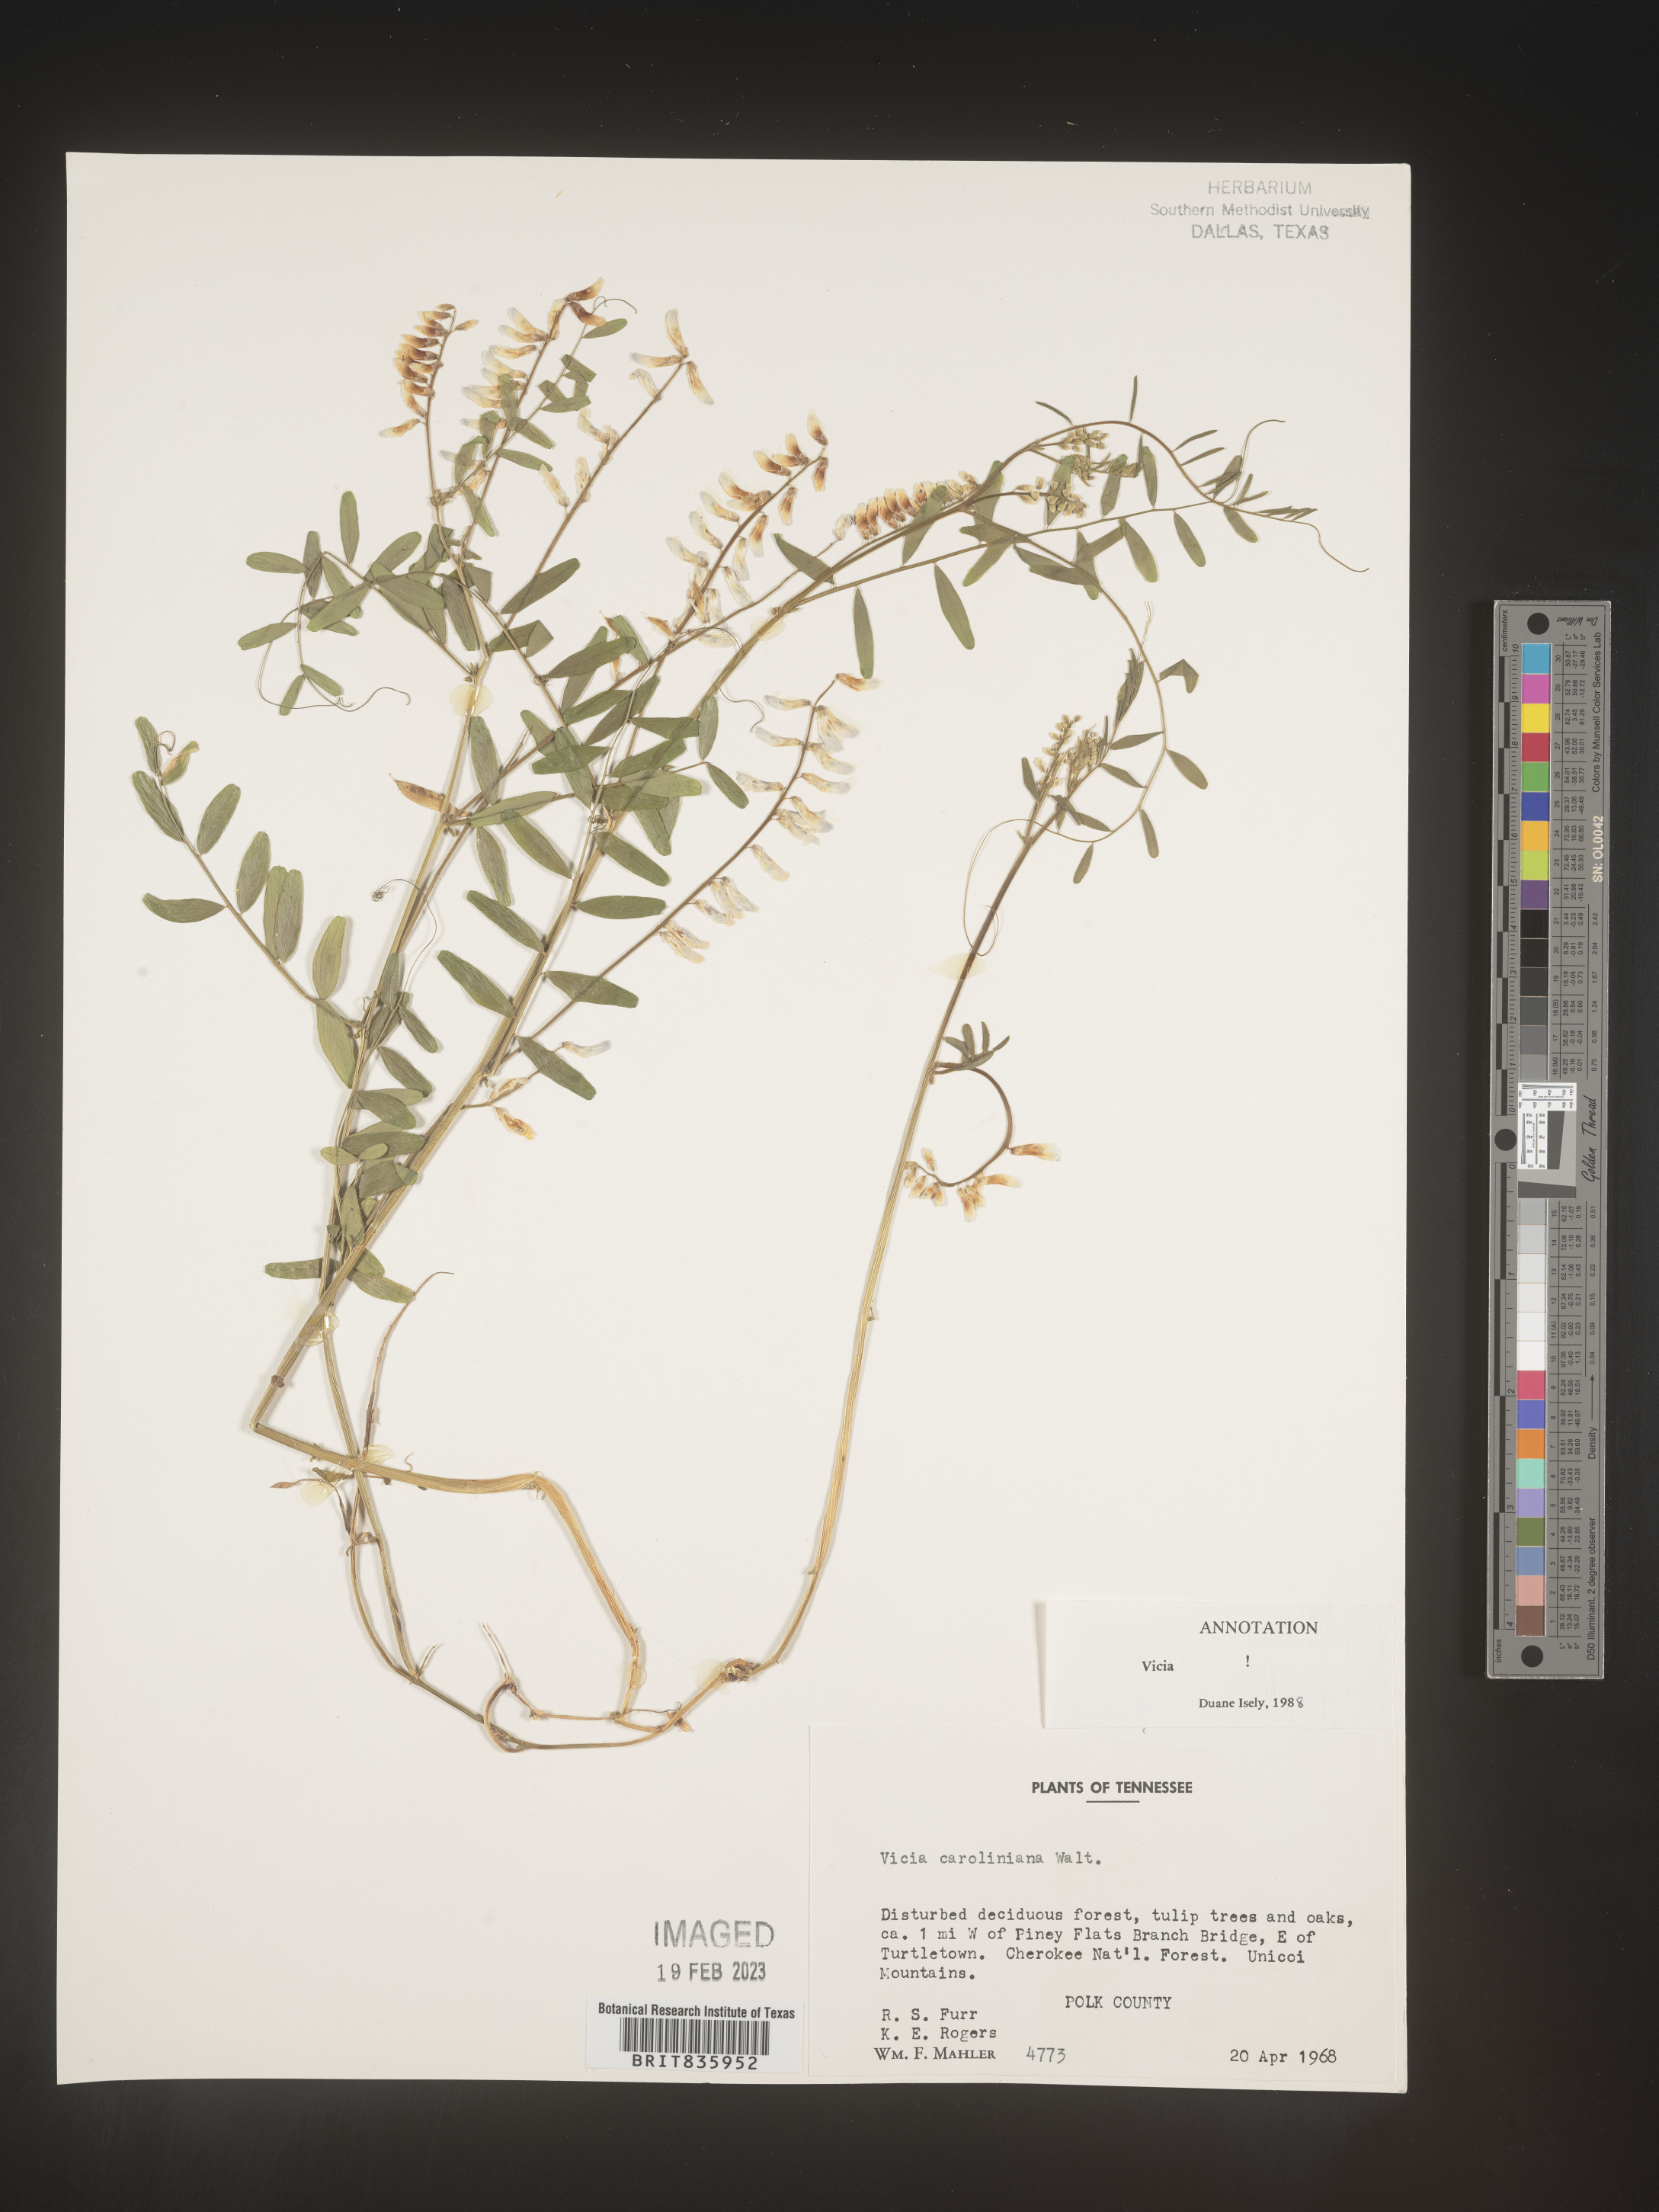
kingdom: Plantae
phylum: Tracheophyta
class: Magnoliopsida
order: Fabales
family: Fabaceae
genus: Vicia
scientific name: Vicia caroliniana
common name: Carolina vetch
